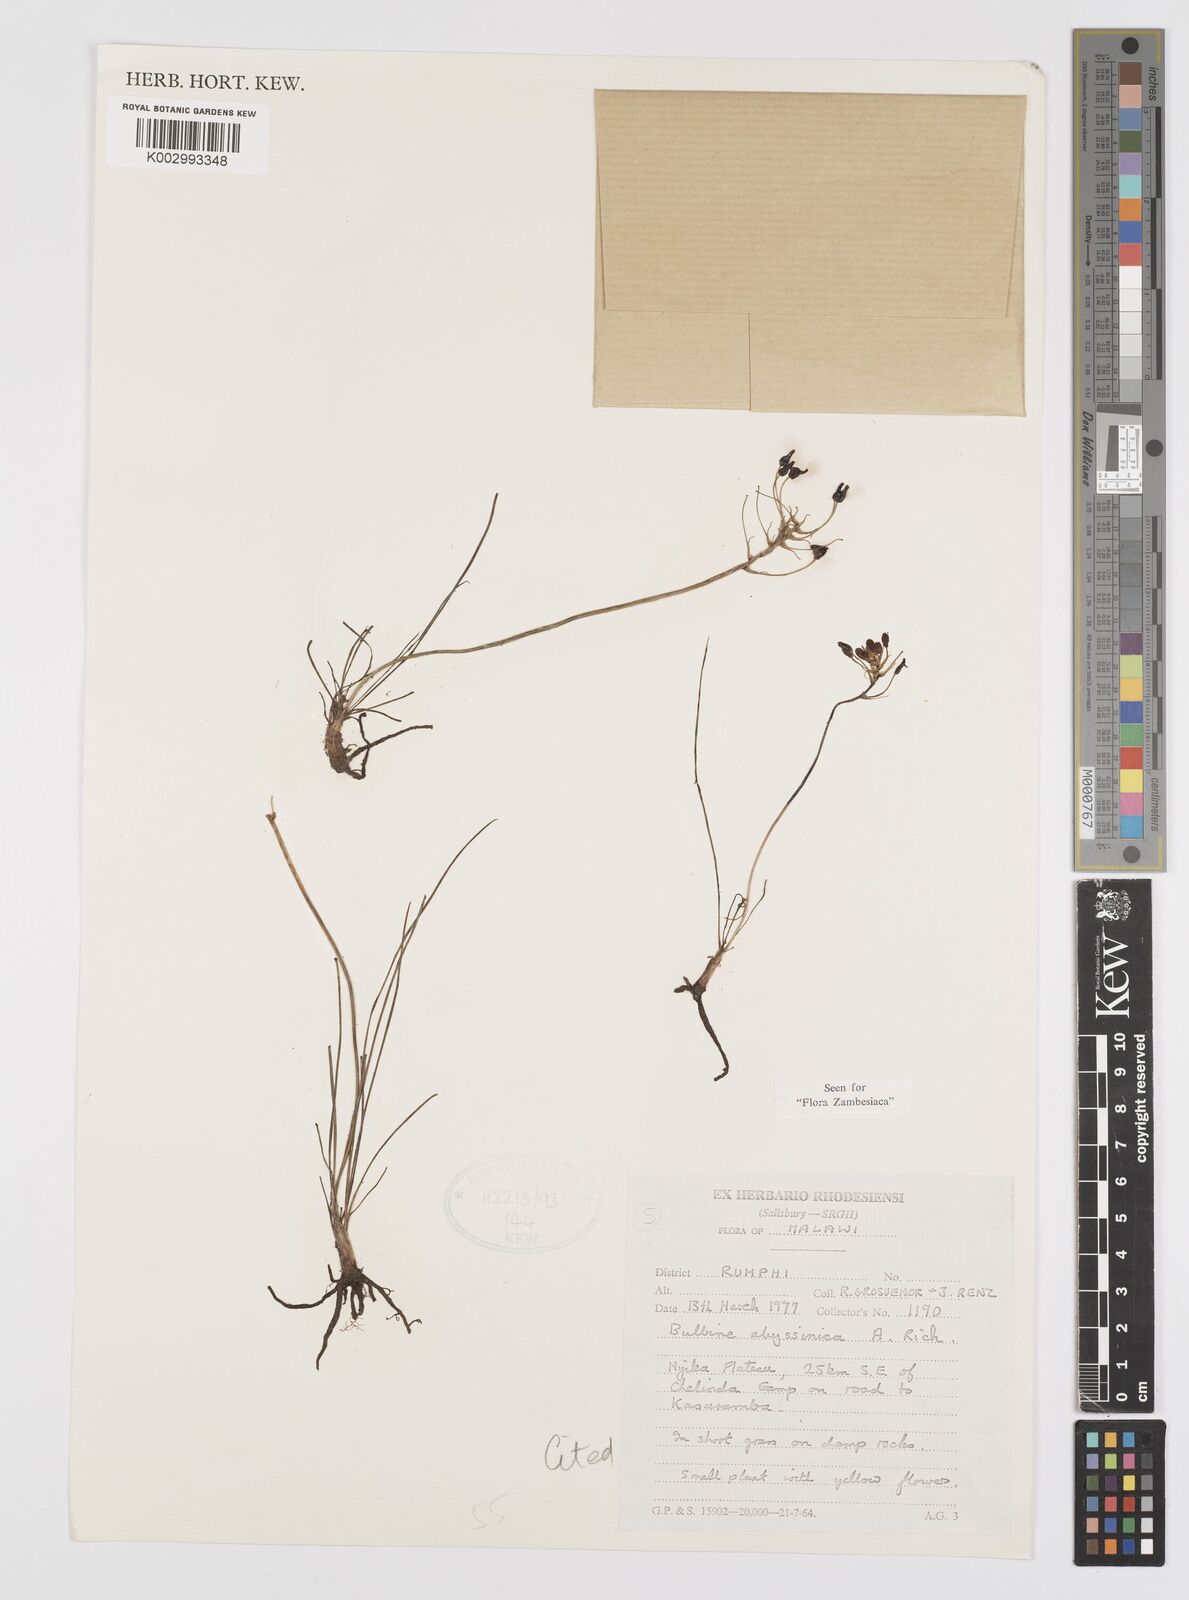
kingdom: Plantae
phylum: Tracheophyta
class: Liliopsida
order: Asparagales
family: Asphodelaceae
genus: Bulbine
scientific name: Bulbine abyssinica
